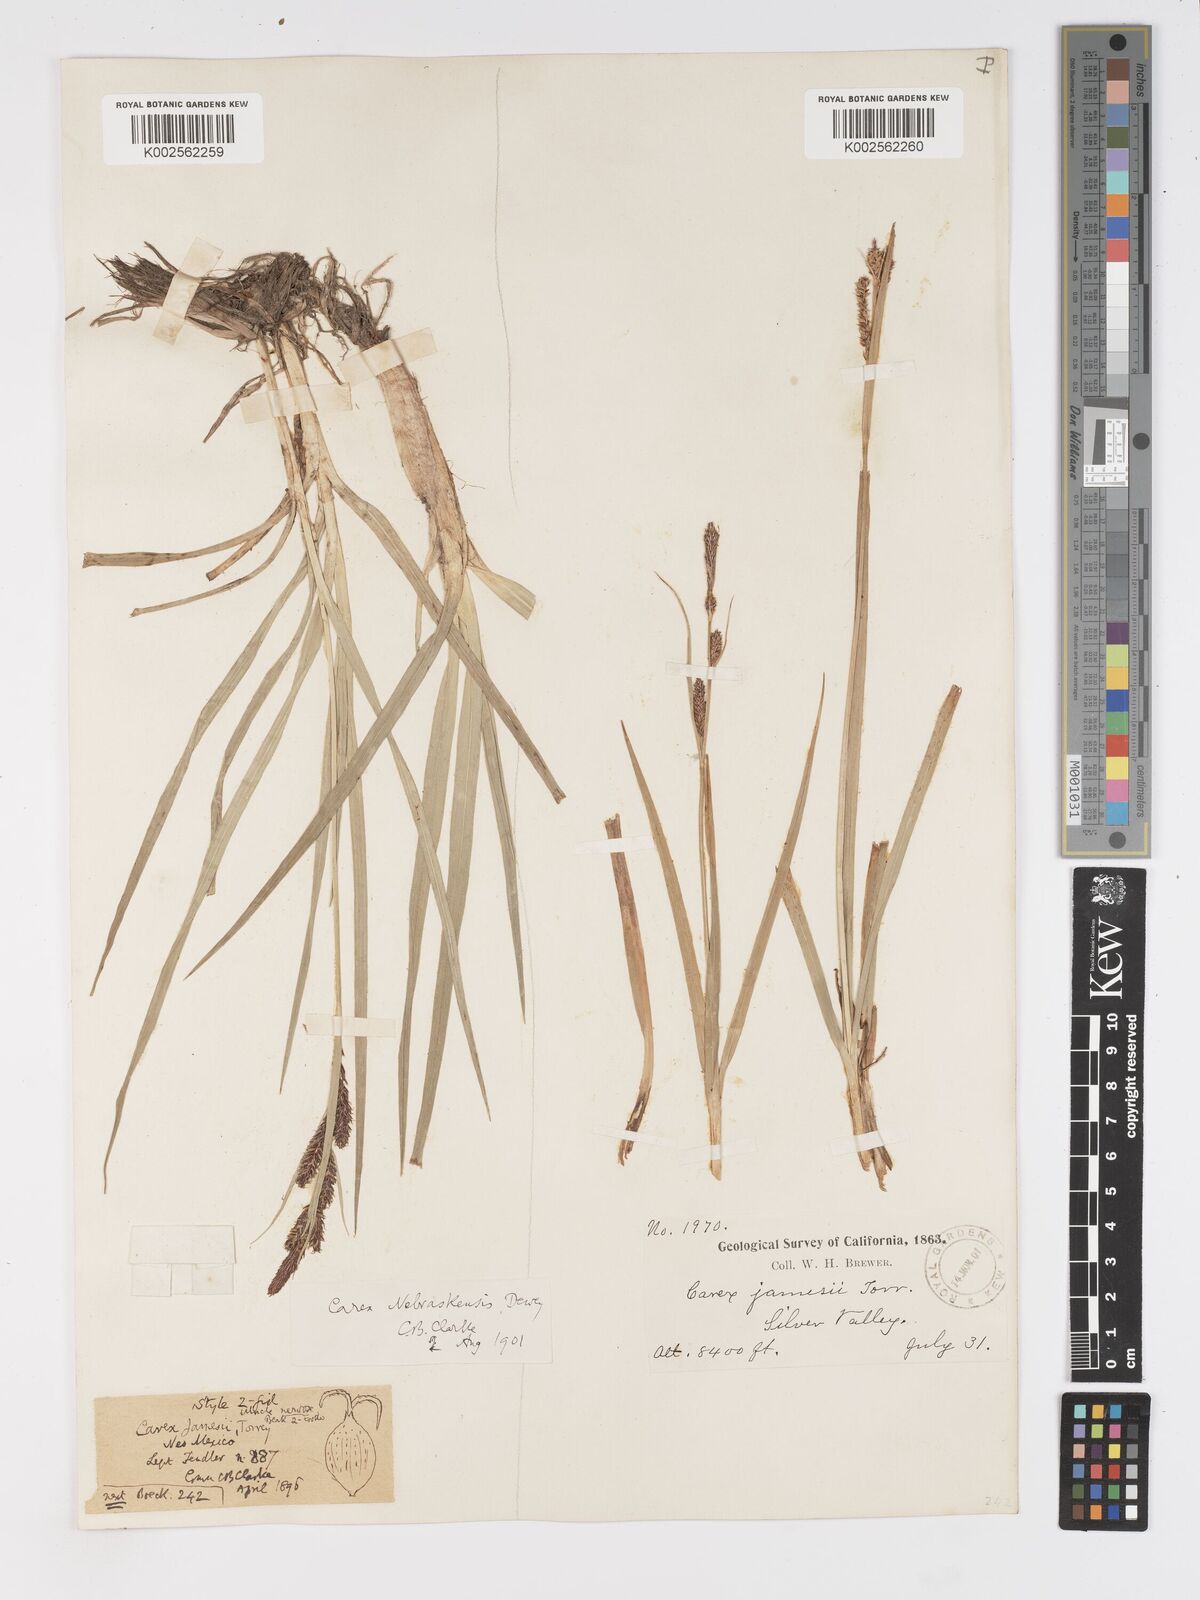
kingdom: Plantae
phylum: Tracheophyta
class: Liliopsida
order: Poales
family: Cyperaceae
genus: Carex
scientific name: Carex nebrascensis
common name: Nebraska sedge
